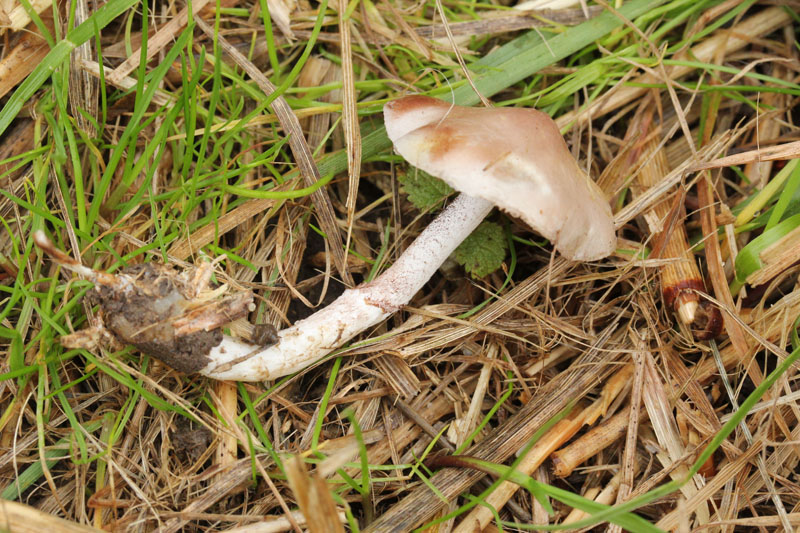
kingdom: Fungi
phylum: Basidiomycota
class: Agaricomycetes
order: Agaricales
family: Strophariaceae
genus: Stropharia
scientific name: Stropharia inuncta
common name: lillabrun bredblad
